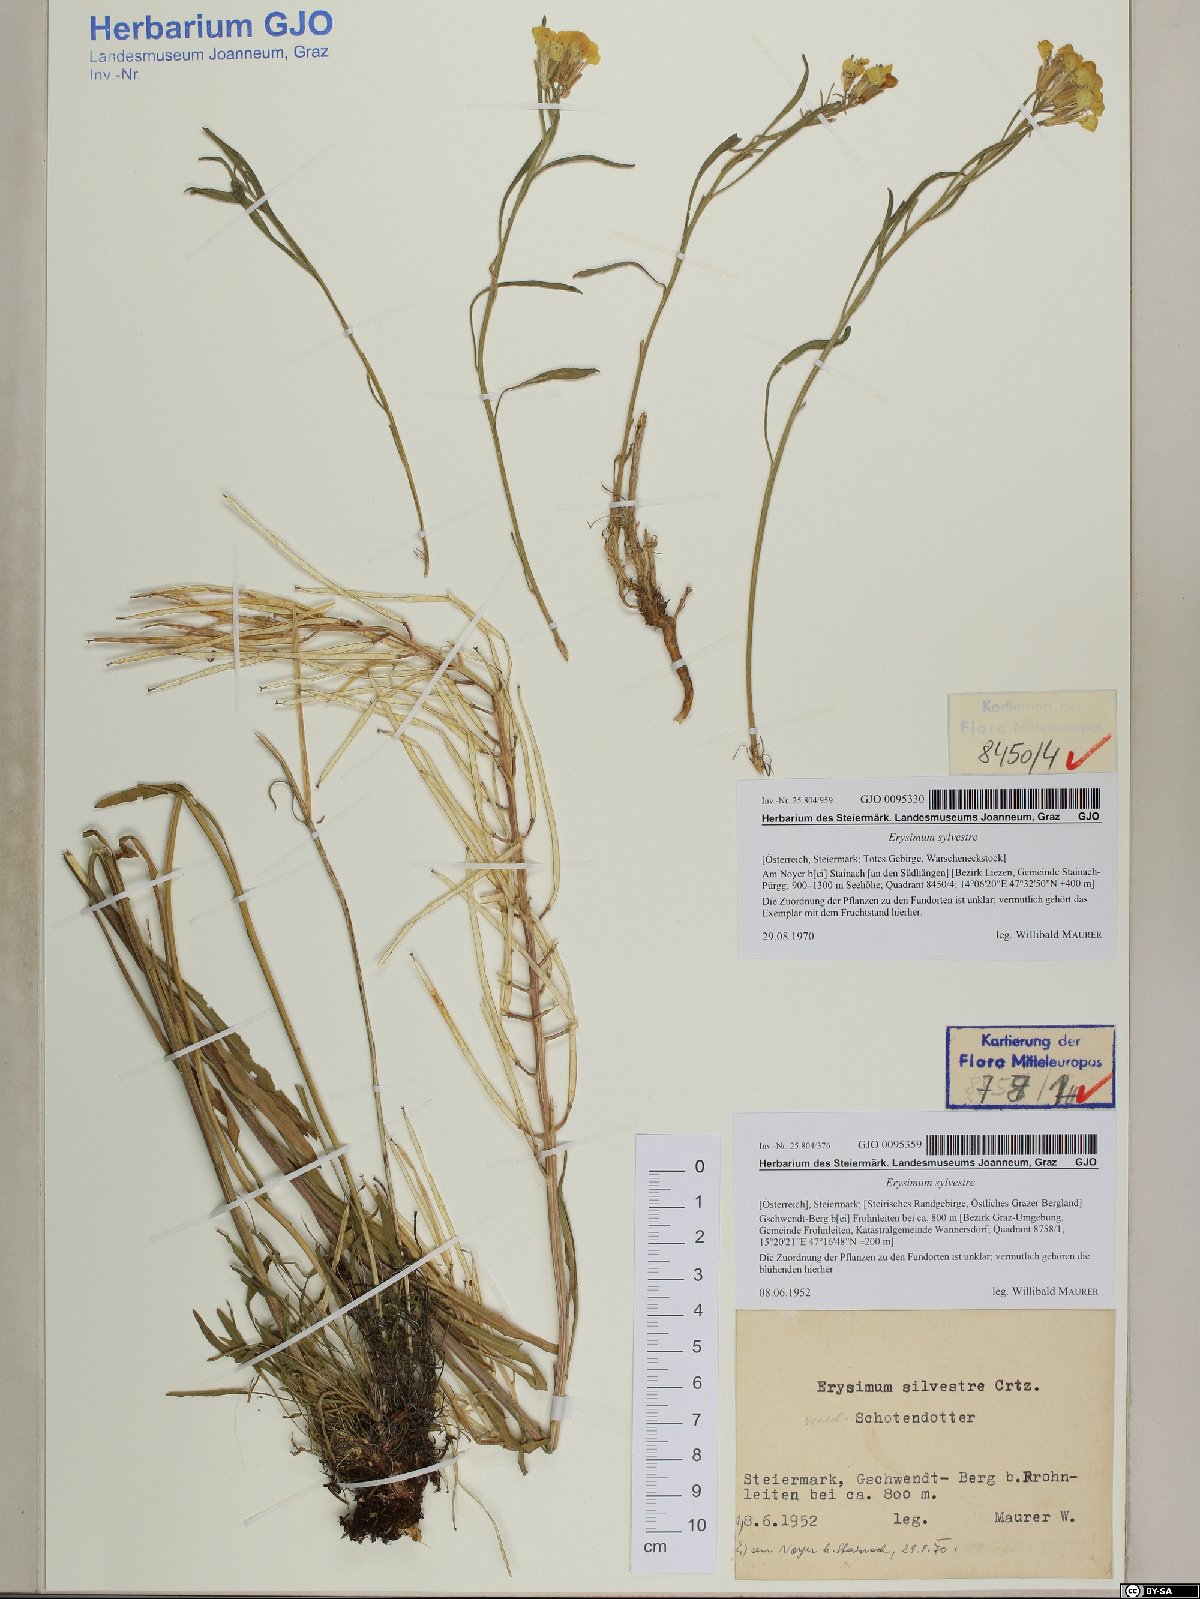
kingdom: Plantae
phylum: Tracheophyta
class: Magnoliopsida
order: Brassicales
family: Brassicaceae
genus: Erysimum
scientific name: Erysimum sylvestre
